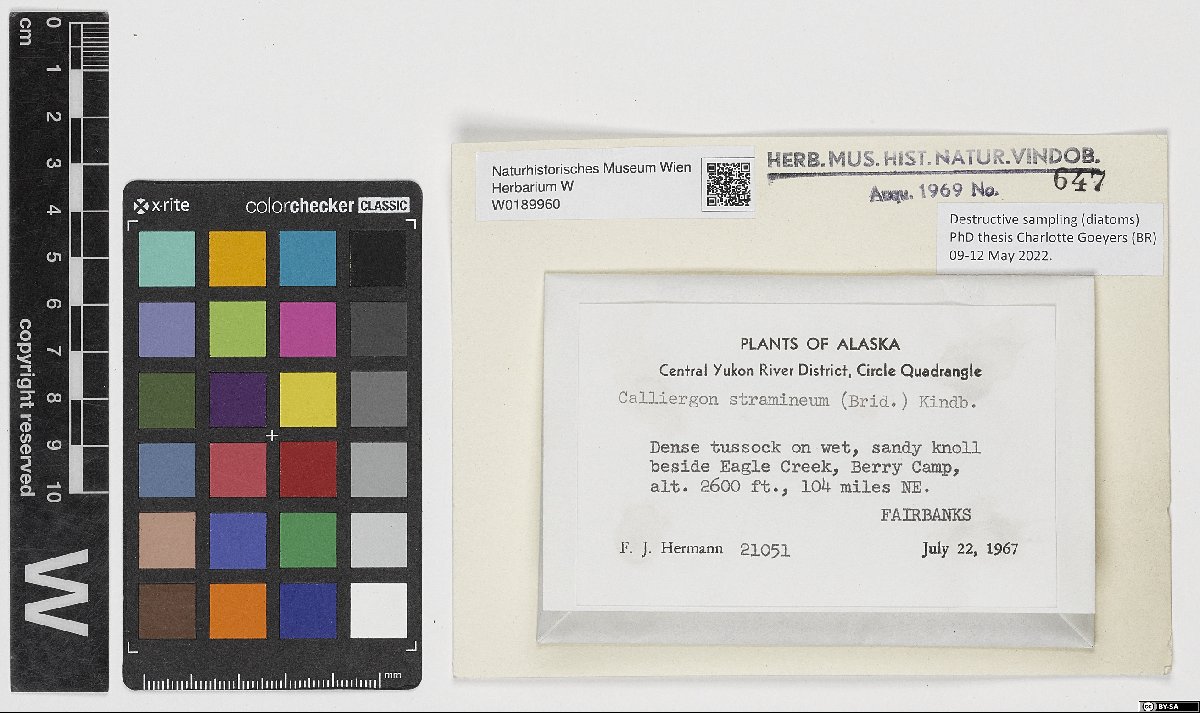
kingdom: Plantae
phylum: Bryophyta
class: Bryopsida
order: Hypnales
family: Calliergonaceae
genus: Straminergon
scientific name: Straminergon stramineum
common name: Straw moss
